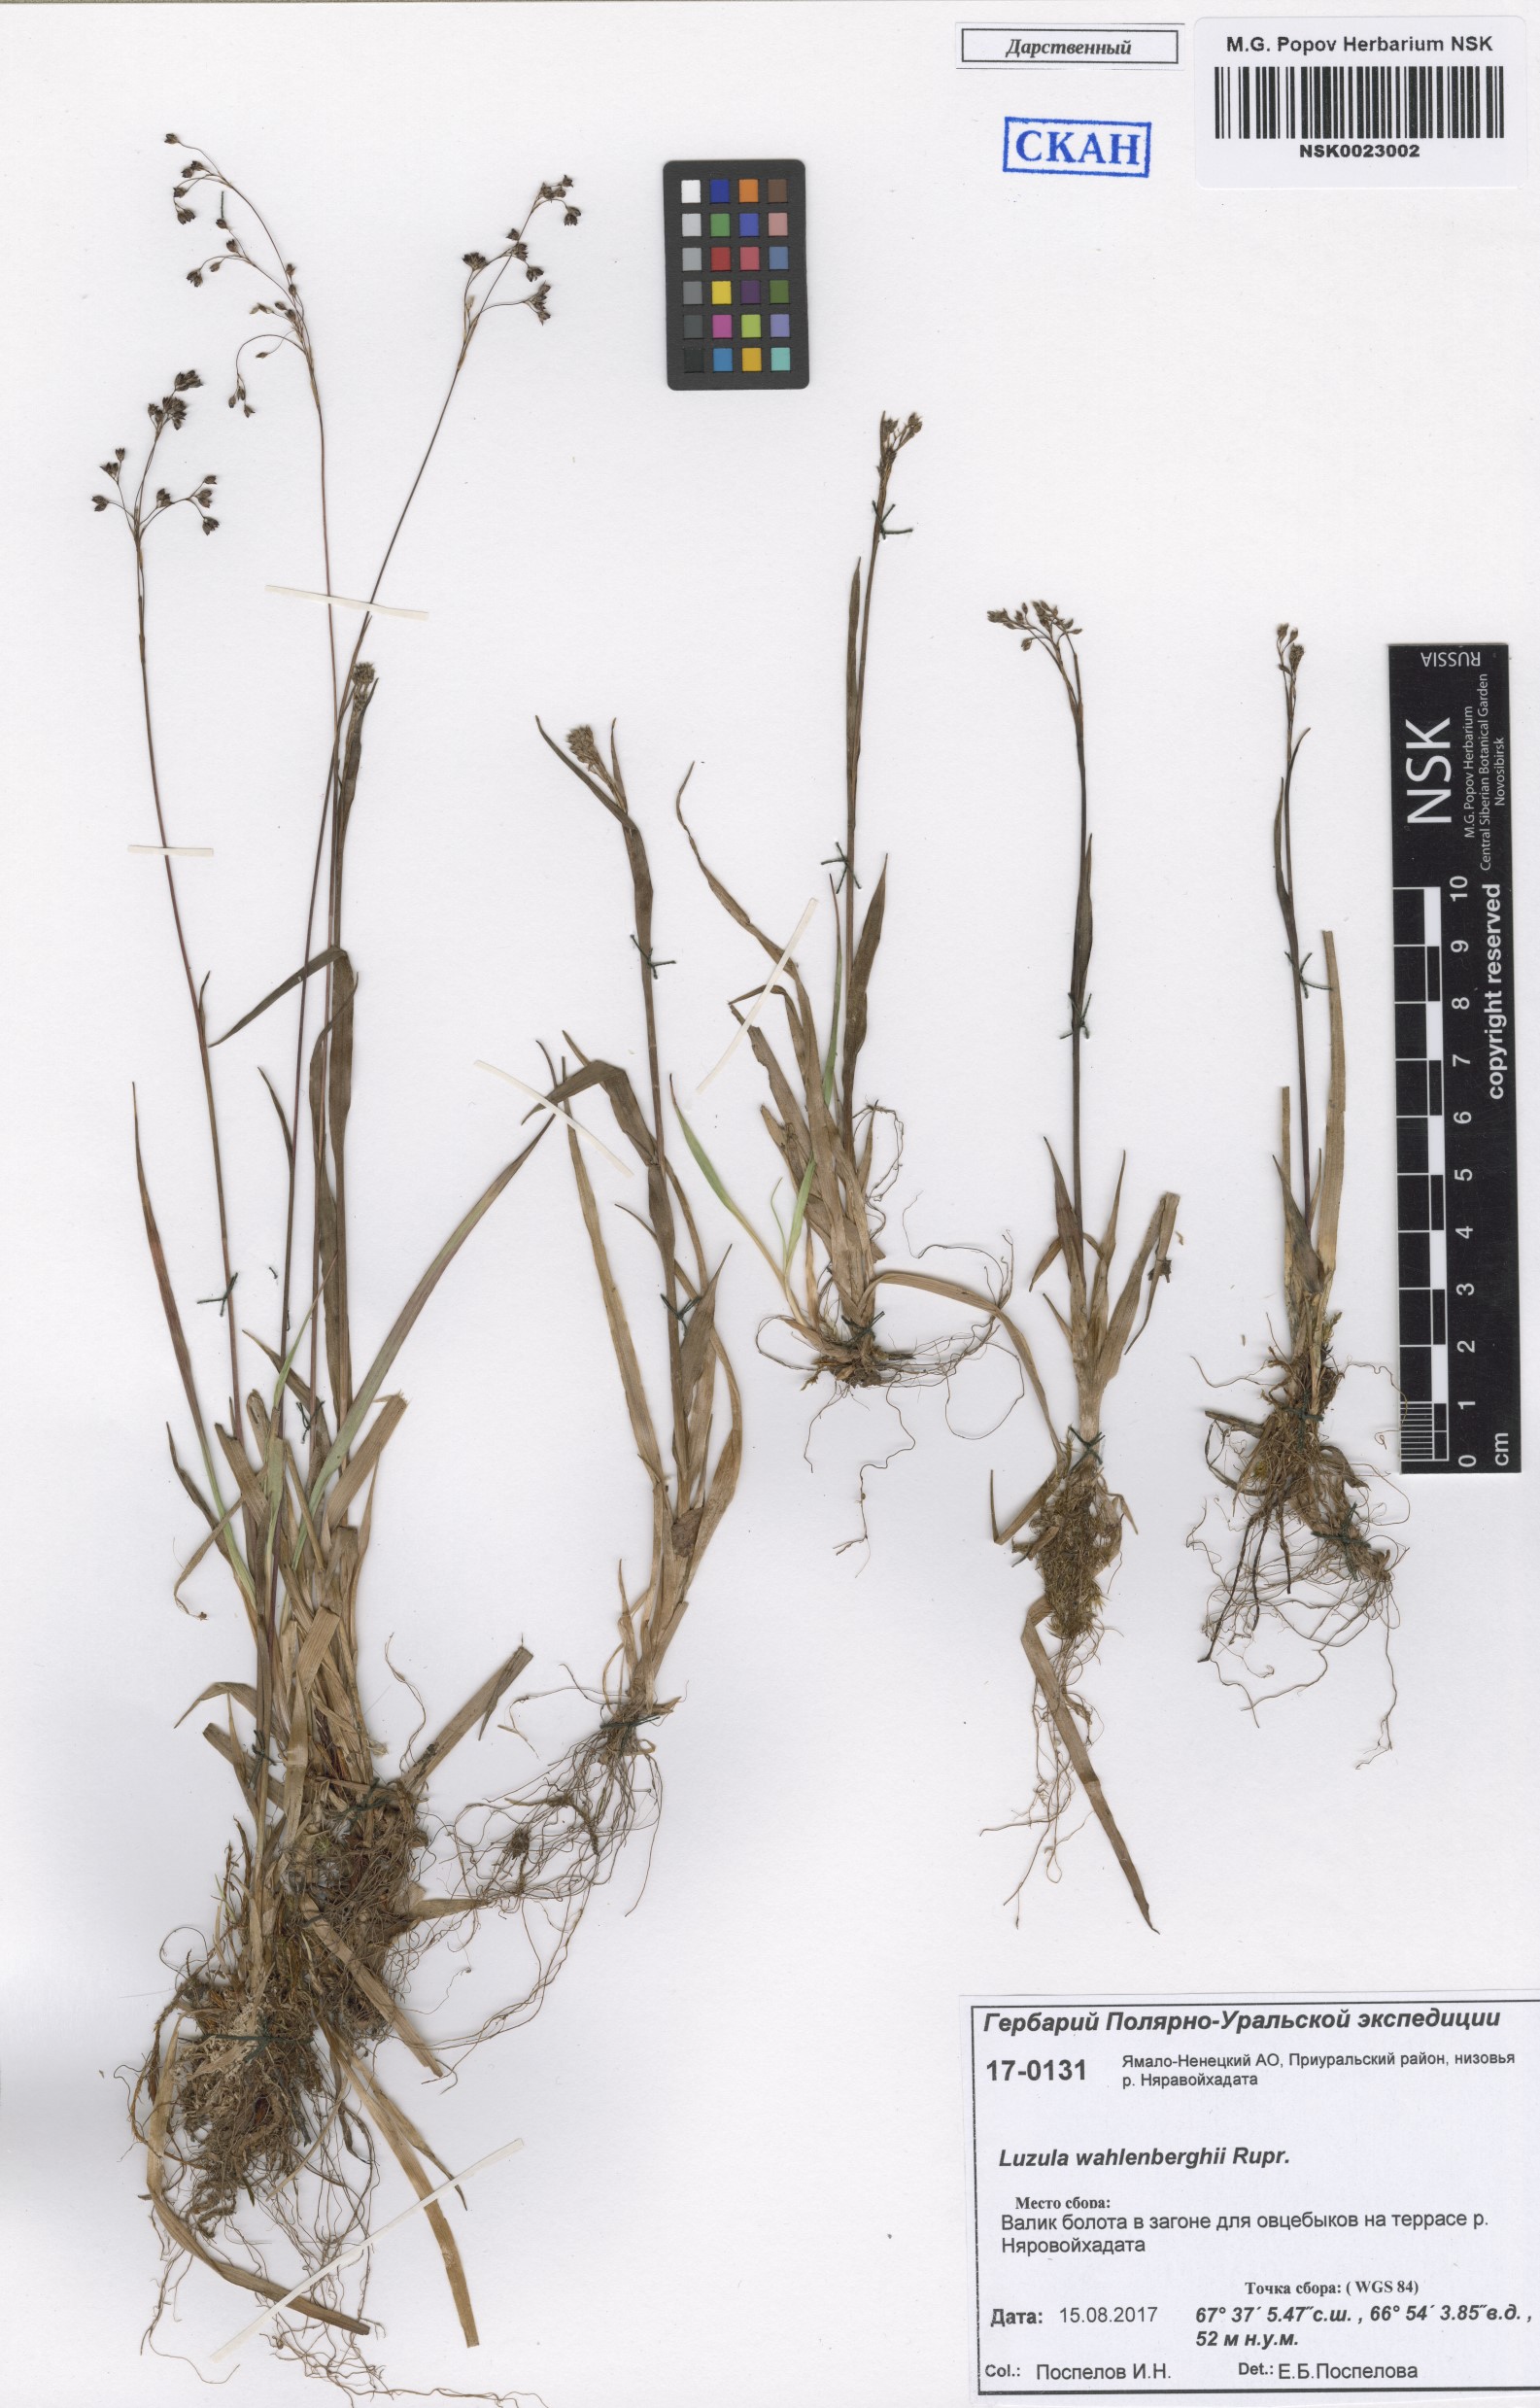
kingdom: Plantae
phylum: Tracheophyta
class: Liliopsida
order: Poales
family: Juncaceae
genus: Luzula
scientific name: Luzula wahlenbergii
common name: Wahlenberg's wood-rush
